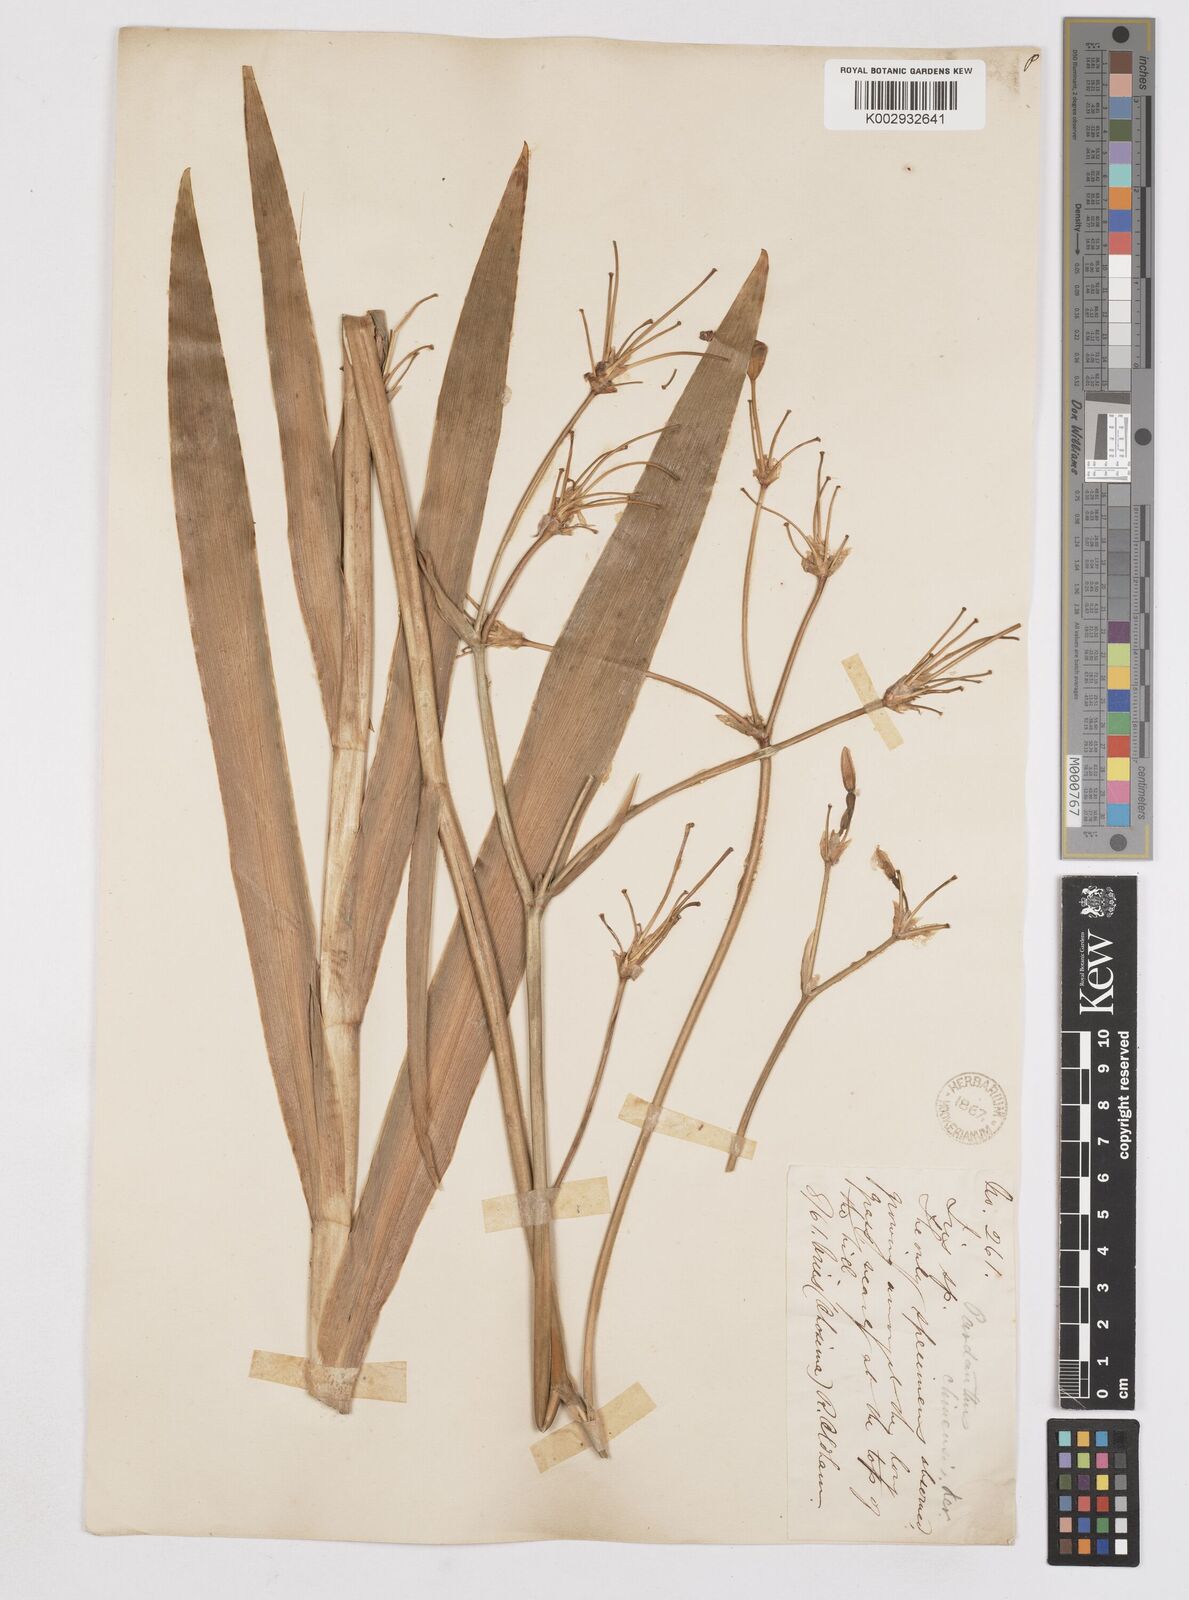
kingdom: Plantae
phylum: Tracheophyta
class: Liliopsida
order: Asparagales
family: Iridaceae
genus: Iris
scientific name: Iris
